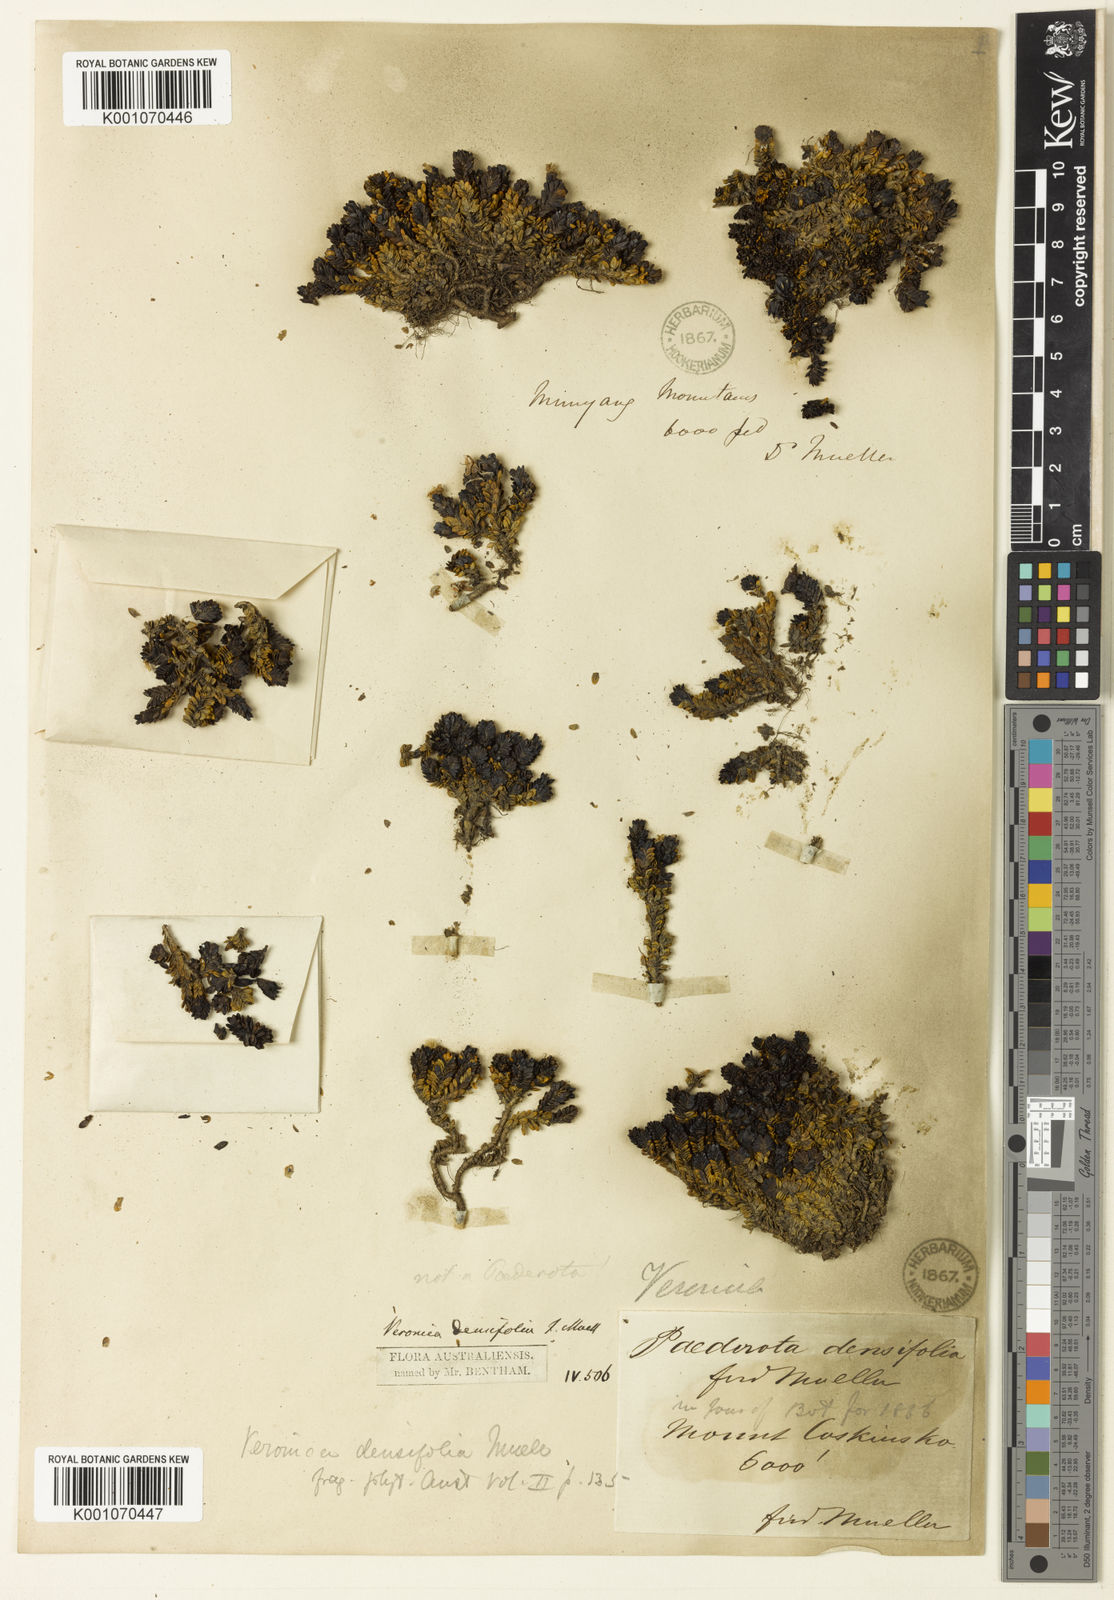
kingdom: Plantae
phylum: Tracheophyta
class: Magnoliopsida
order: Lamiales
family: Plantaginaceae
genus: Veronica
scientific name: Veronica
